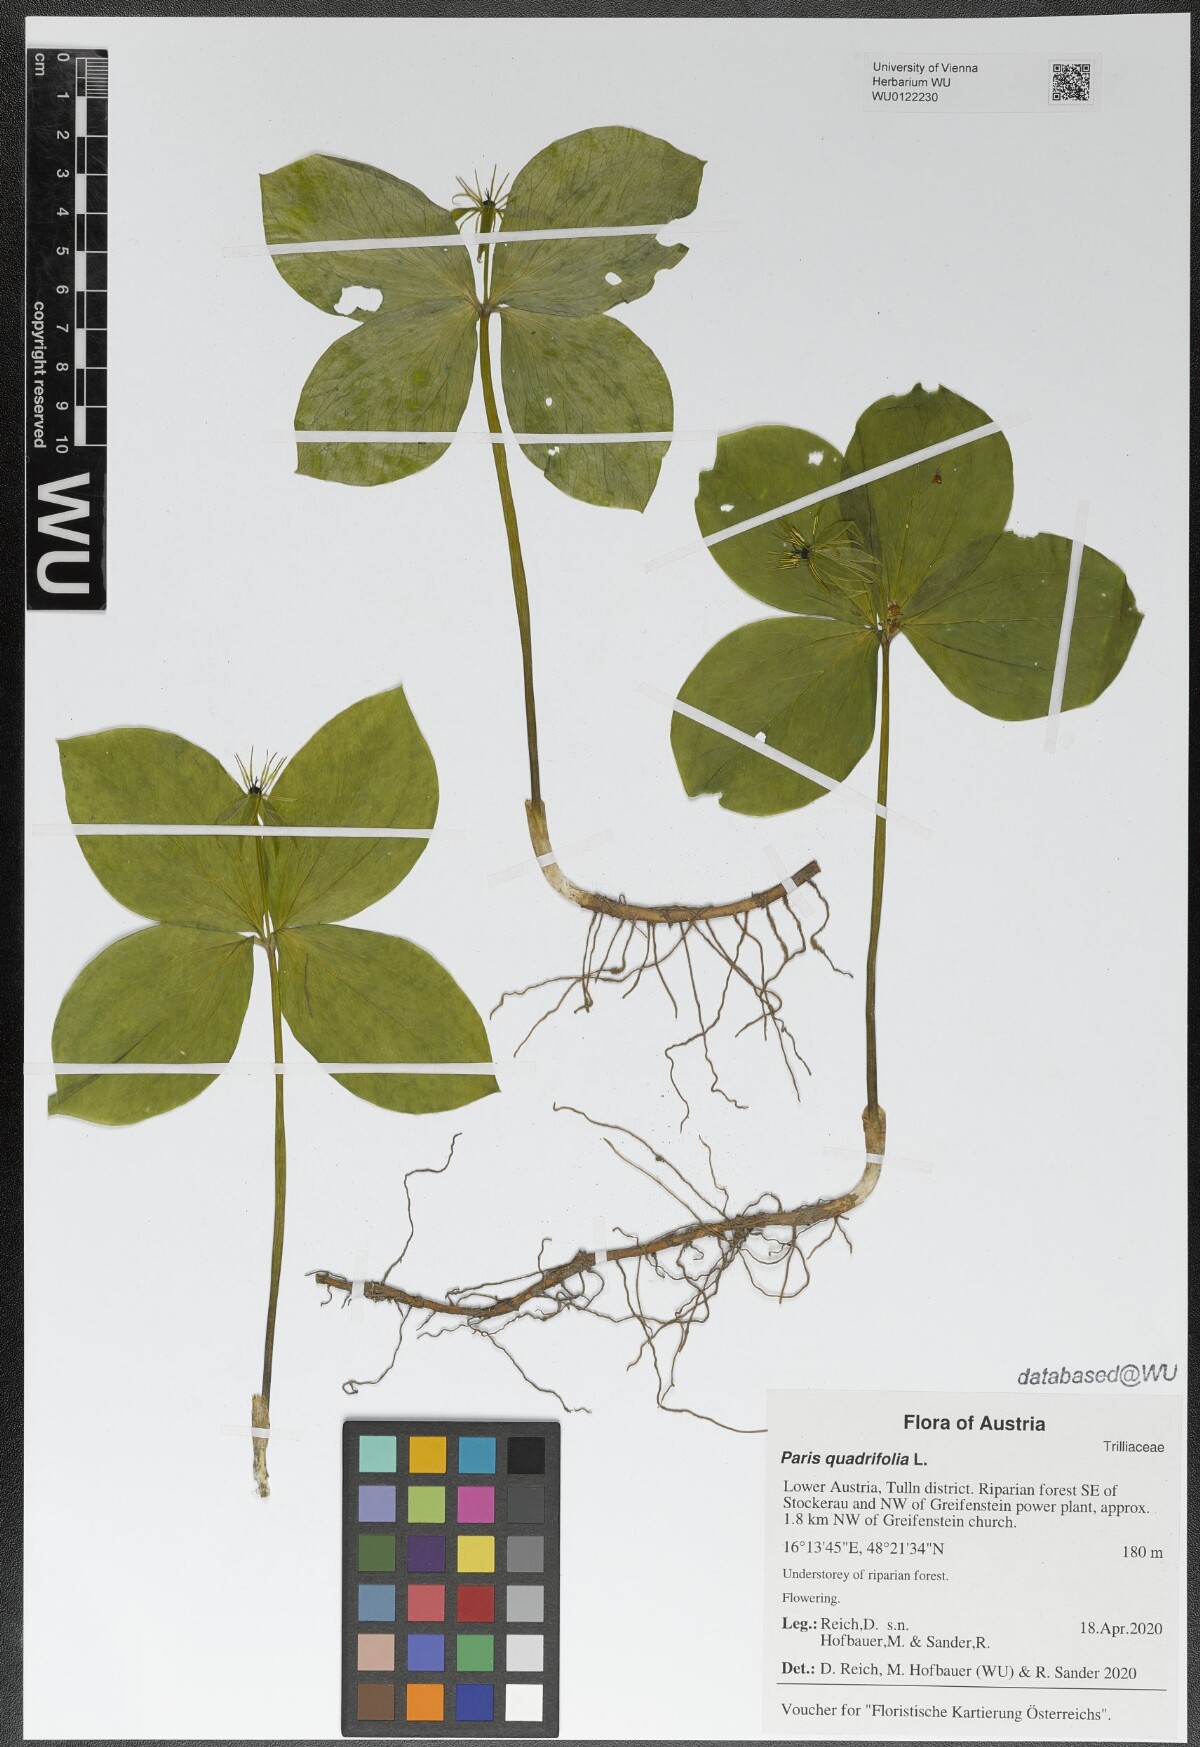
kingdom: Plantae
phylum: Tracheophyta
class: Liliopsida
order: Liliales
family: Melanthiaceae
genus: Paris
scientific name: Paris quadrifolia
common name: Herb-paris
